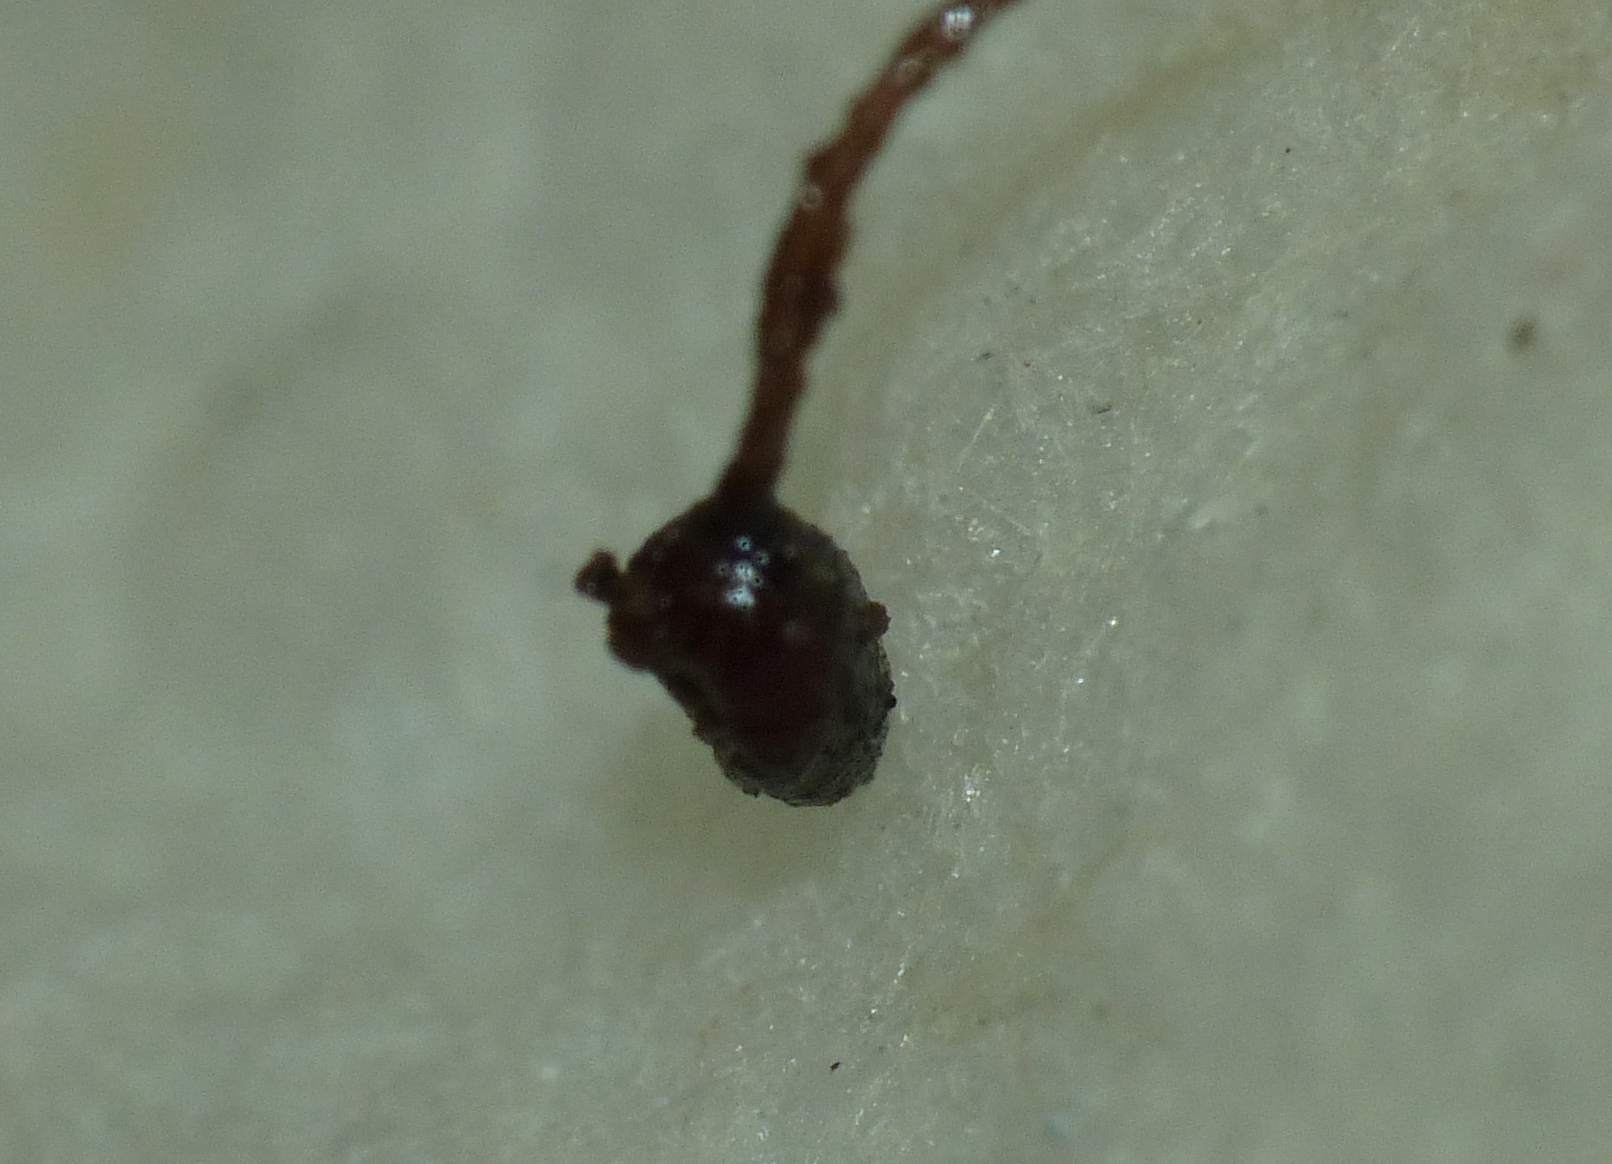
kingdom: Fungi
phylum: Basidiomycota
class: Agaricomycetes
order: Agaricales
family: Typhulaceae
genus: Typhula
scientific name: Typhula
